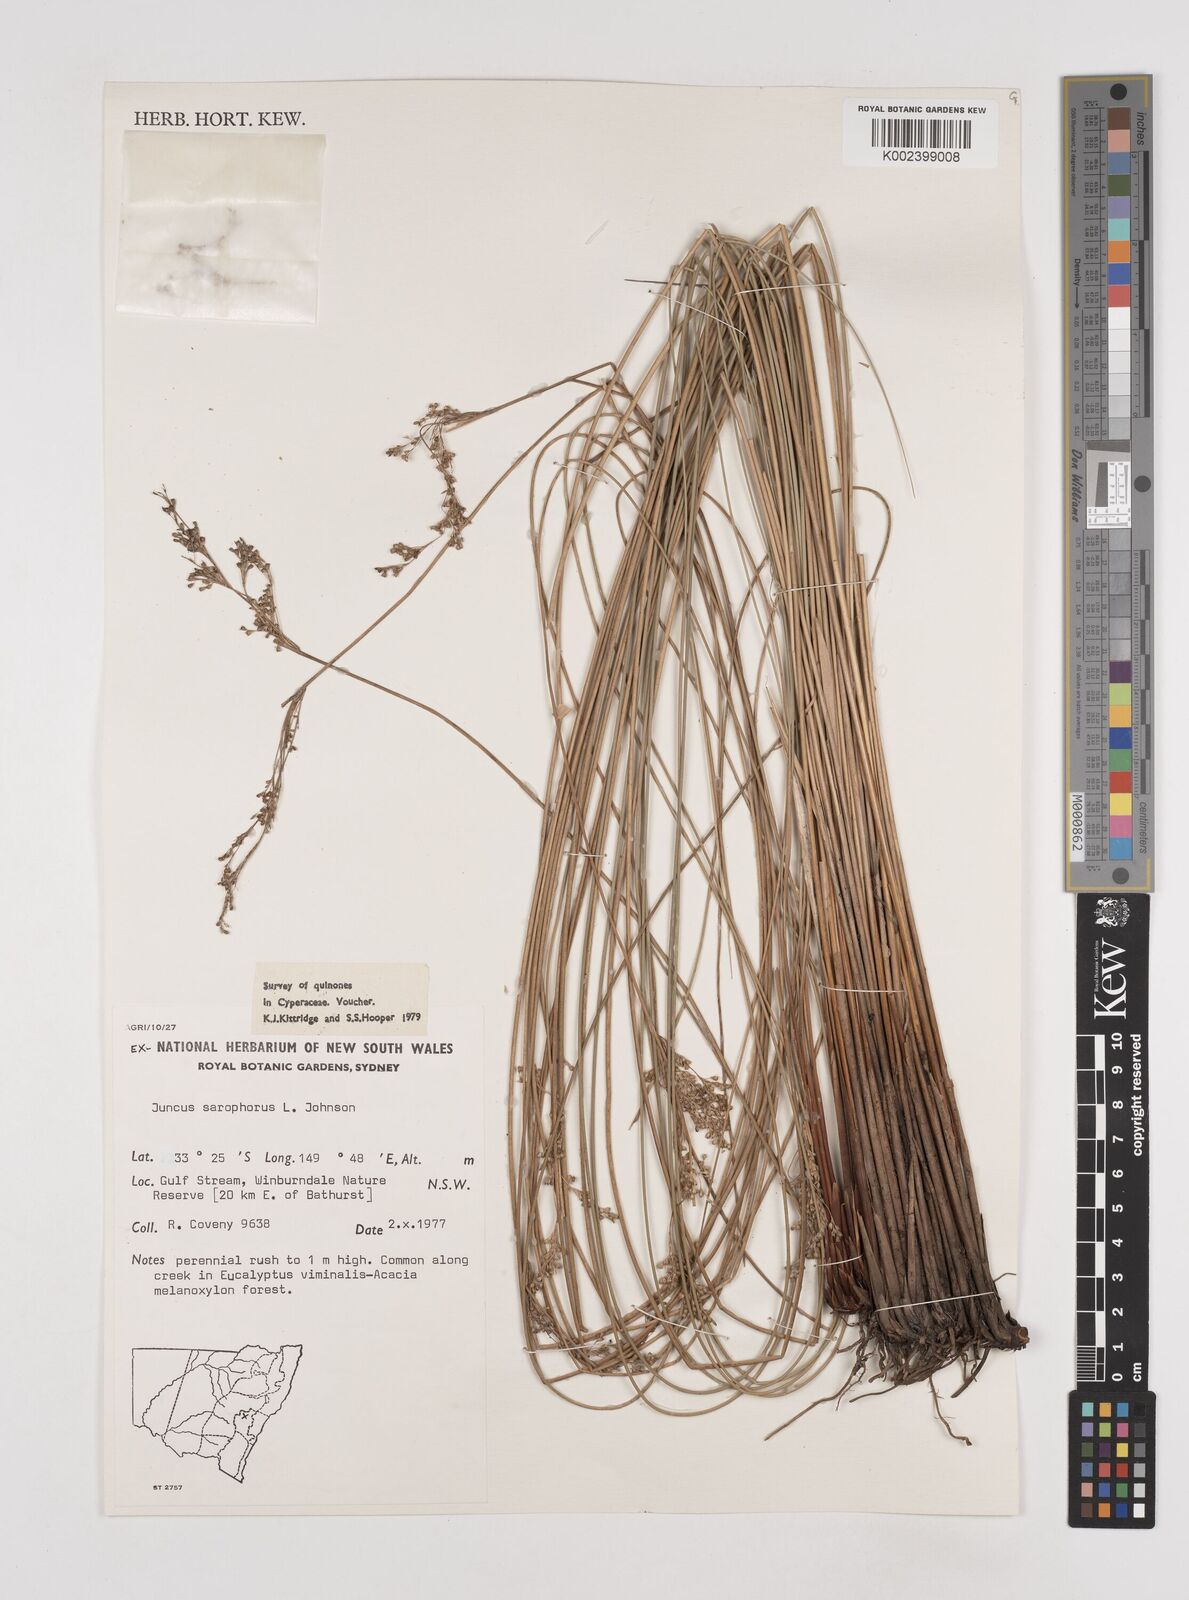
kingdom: Plantae
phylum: Tracheophyta
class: Liliopsida
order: Poales
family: Juncaceae
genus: Juncus
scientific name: Juncus sarophorus
